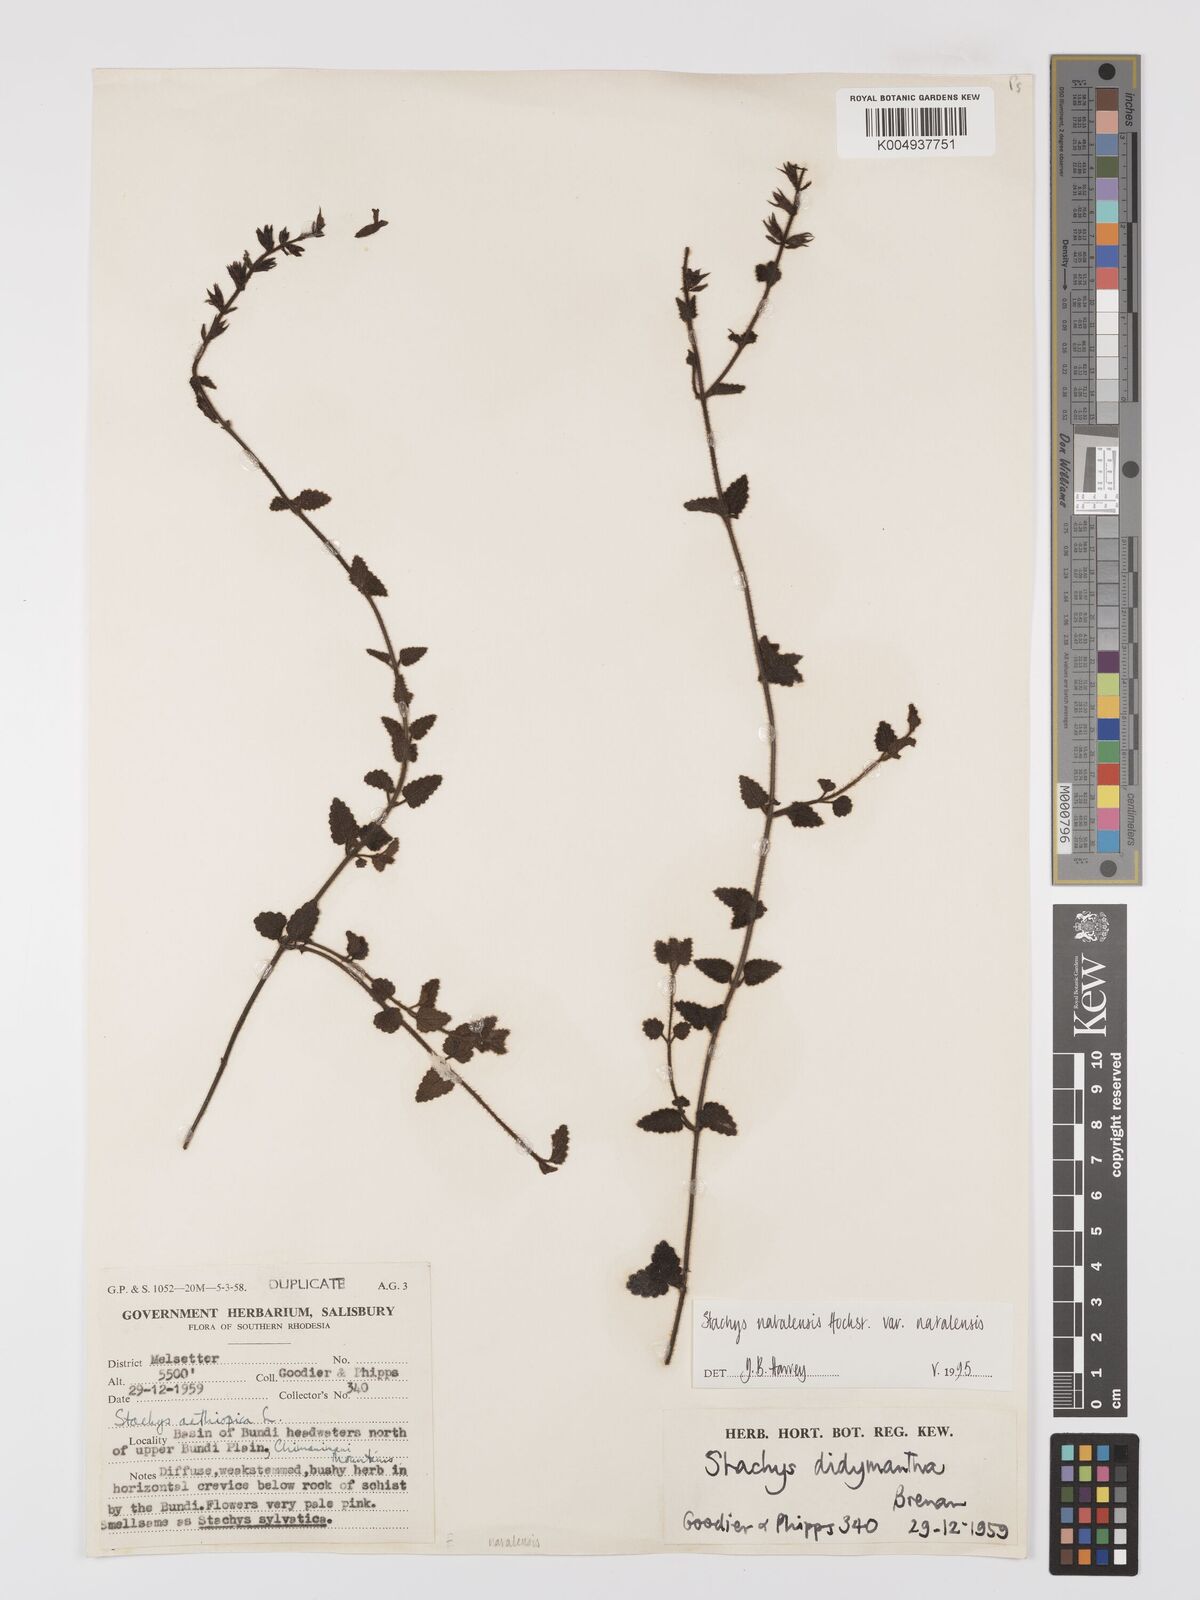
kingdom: Plantae
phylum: Tracheophyta
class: Magnoliopsida
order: Lamiales
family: Lamiaceae
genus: Stachys
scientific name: Stachys natalensis
